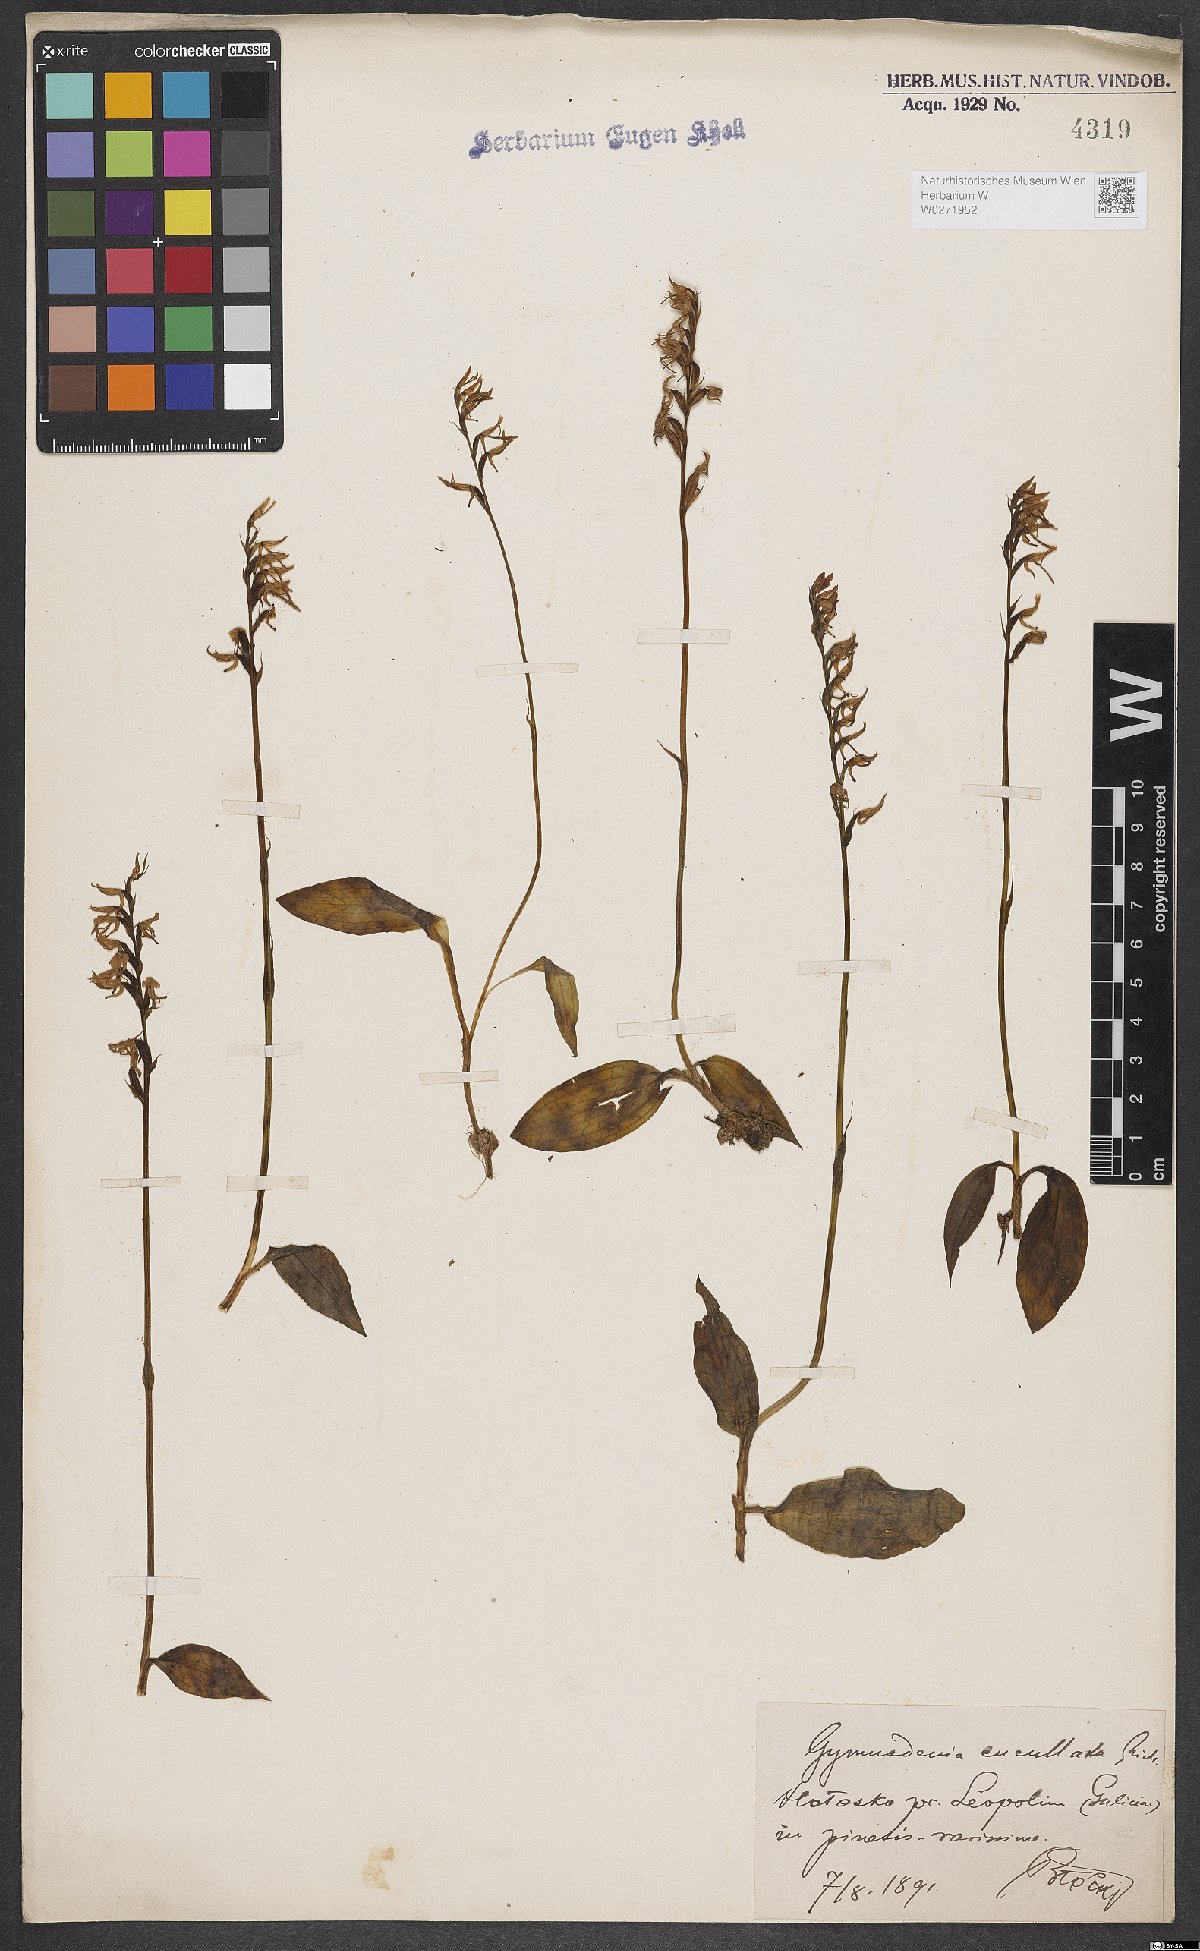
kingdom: Plantae
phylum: Tracheophyta
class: Liliopsida
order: Asparagales
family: Orchidaceae
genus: Hemipilia
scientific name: Hemipilia cucullata
